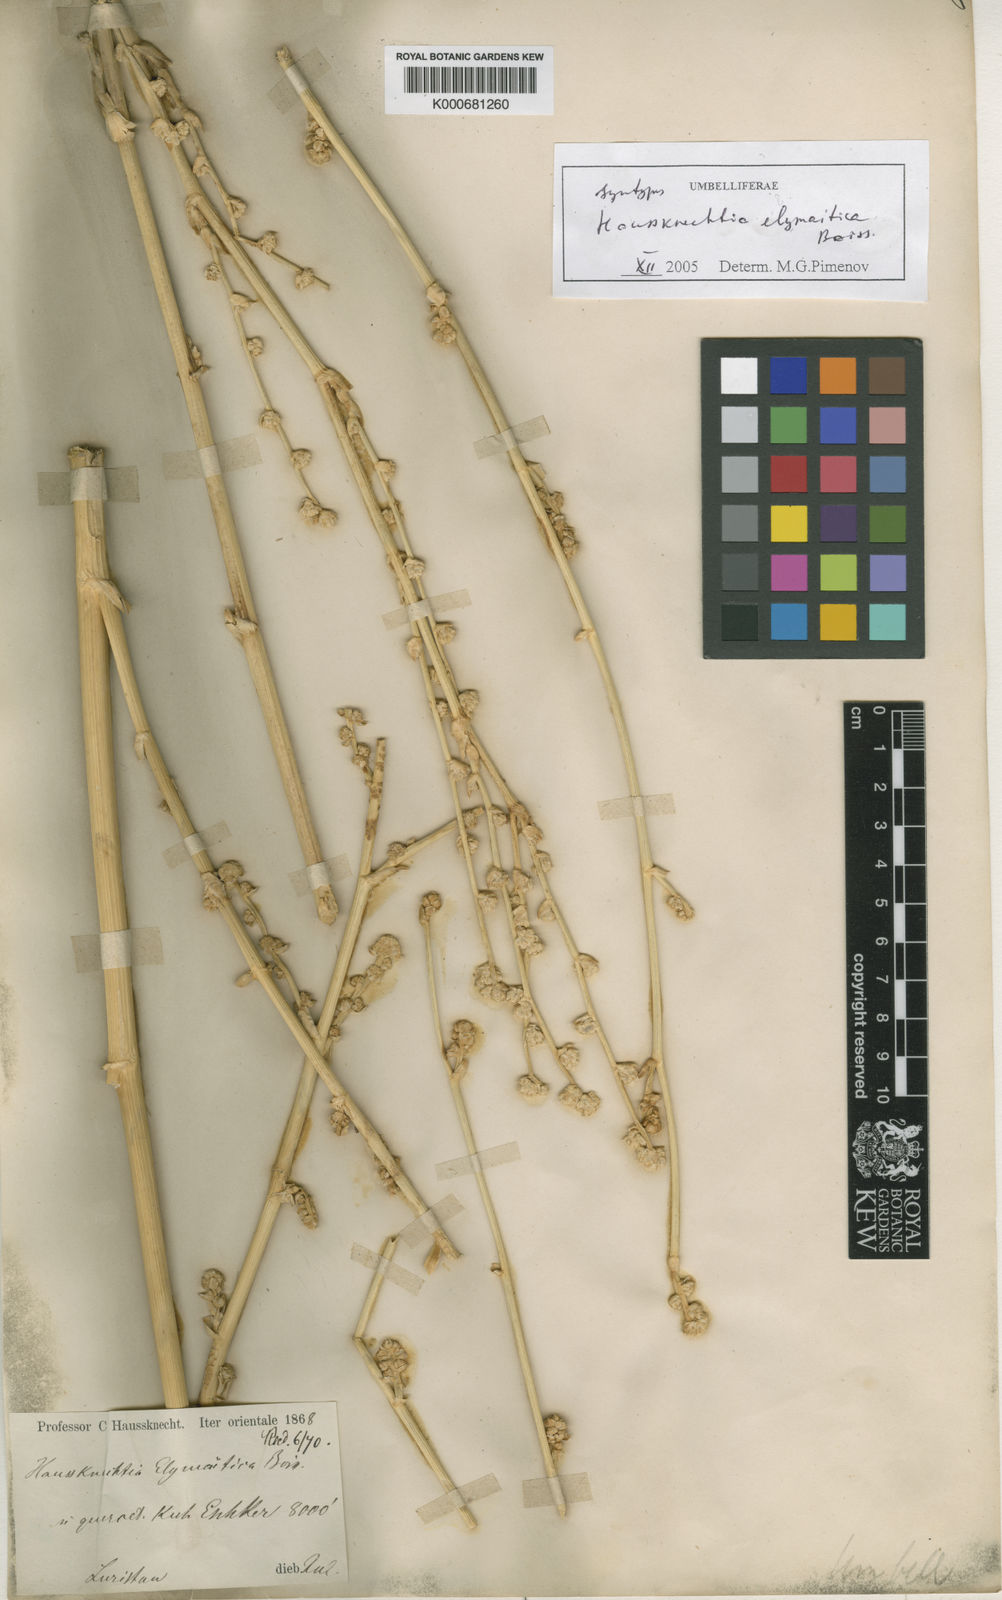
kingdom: Plantae
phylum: Tracheophyta
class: Magnoliopsida
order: Apiales
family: Apiaceae
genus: Haussknechtia
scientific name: Haussknechtia elymaitica
